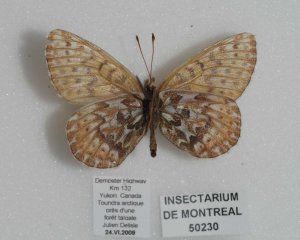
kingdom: Animalia
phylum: Arthropoda
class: Insecta
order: Lepidoptera
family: Nymphalidae
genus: Clossiana
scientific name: Clossiana polaris
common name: Polaris Fritillary
